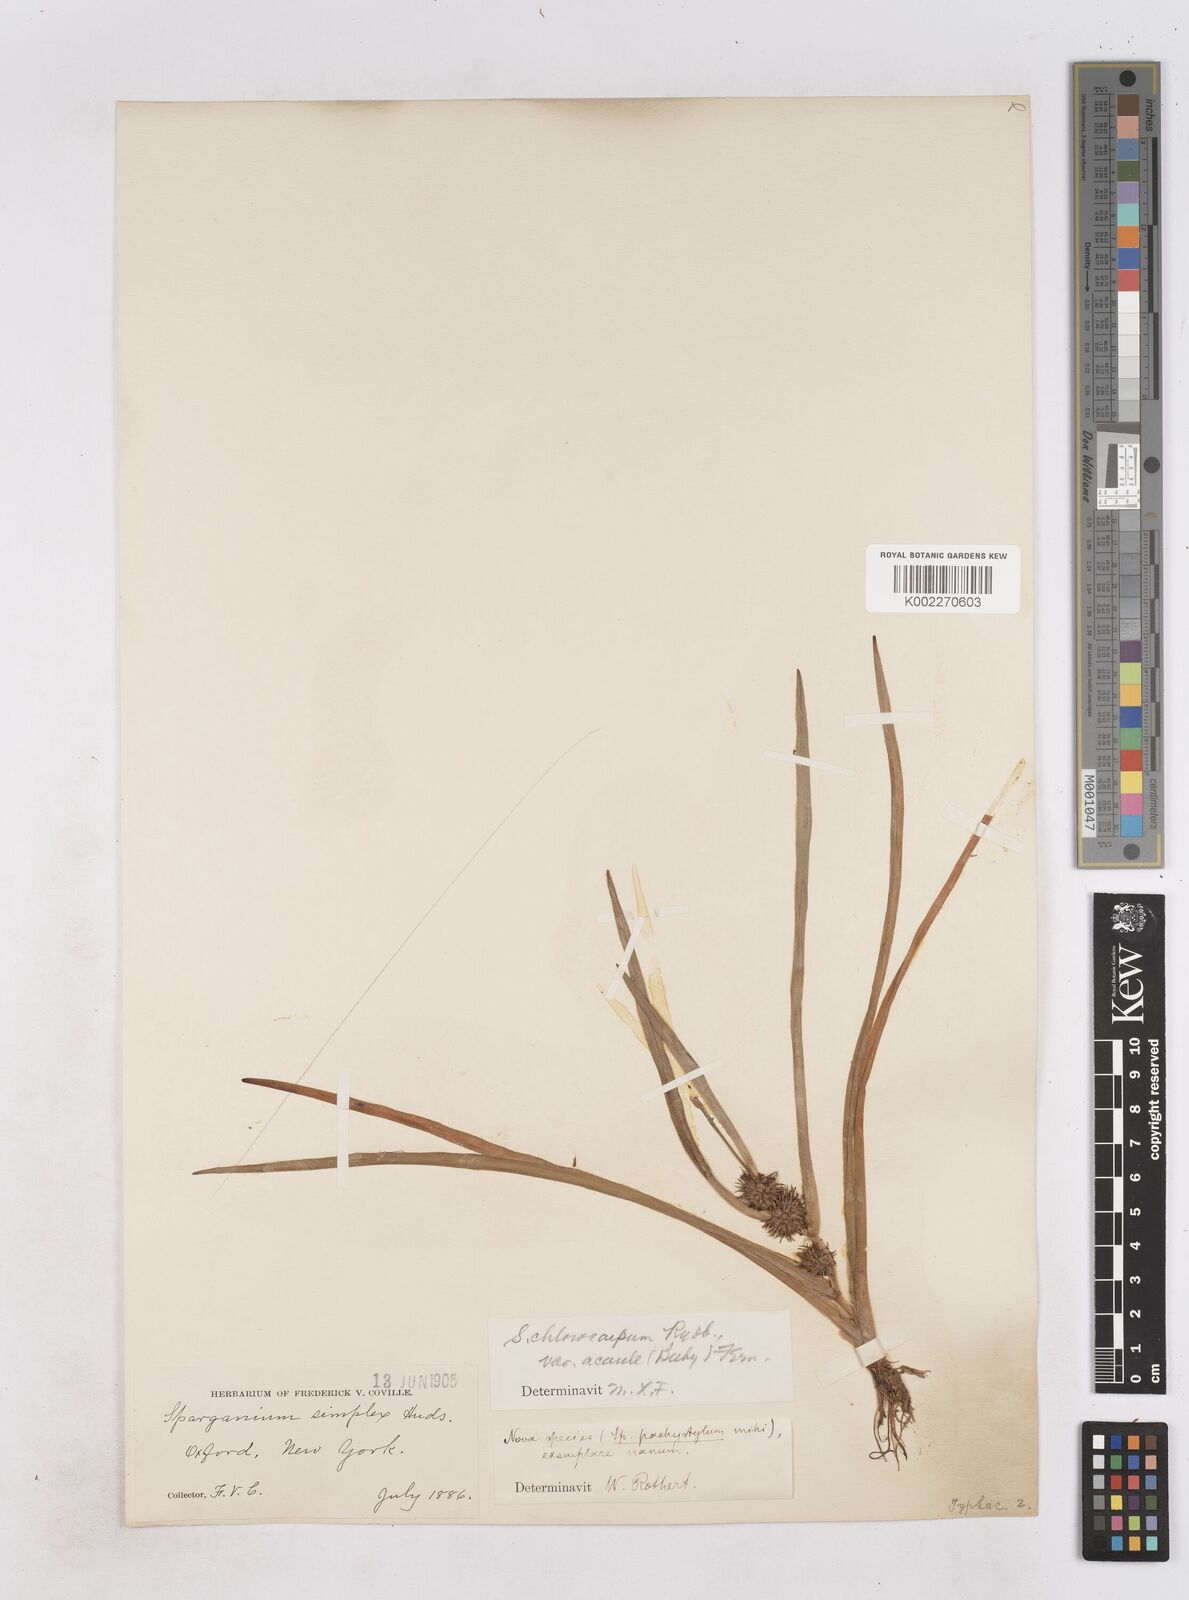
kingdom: Plantae
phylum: Tracheophyta
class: Liliopsida
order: Poales
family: Typhaceae
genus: Sparganium
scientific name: Sparganium emersum
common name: Unbranched bur-reed
